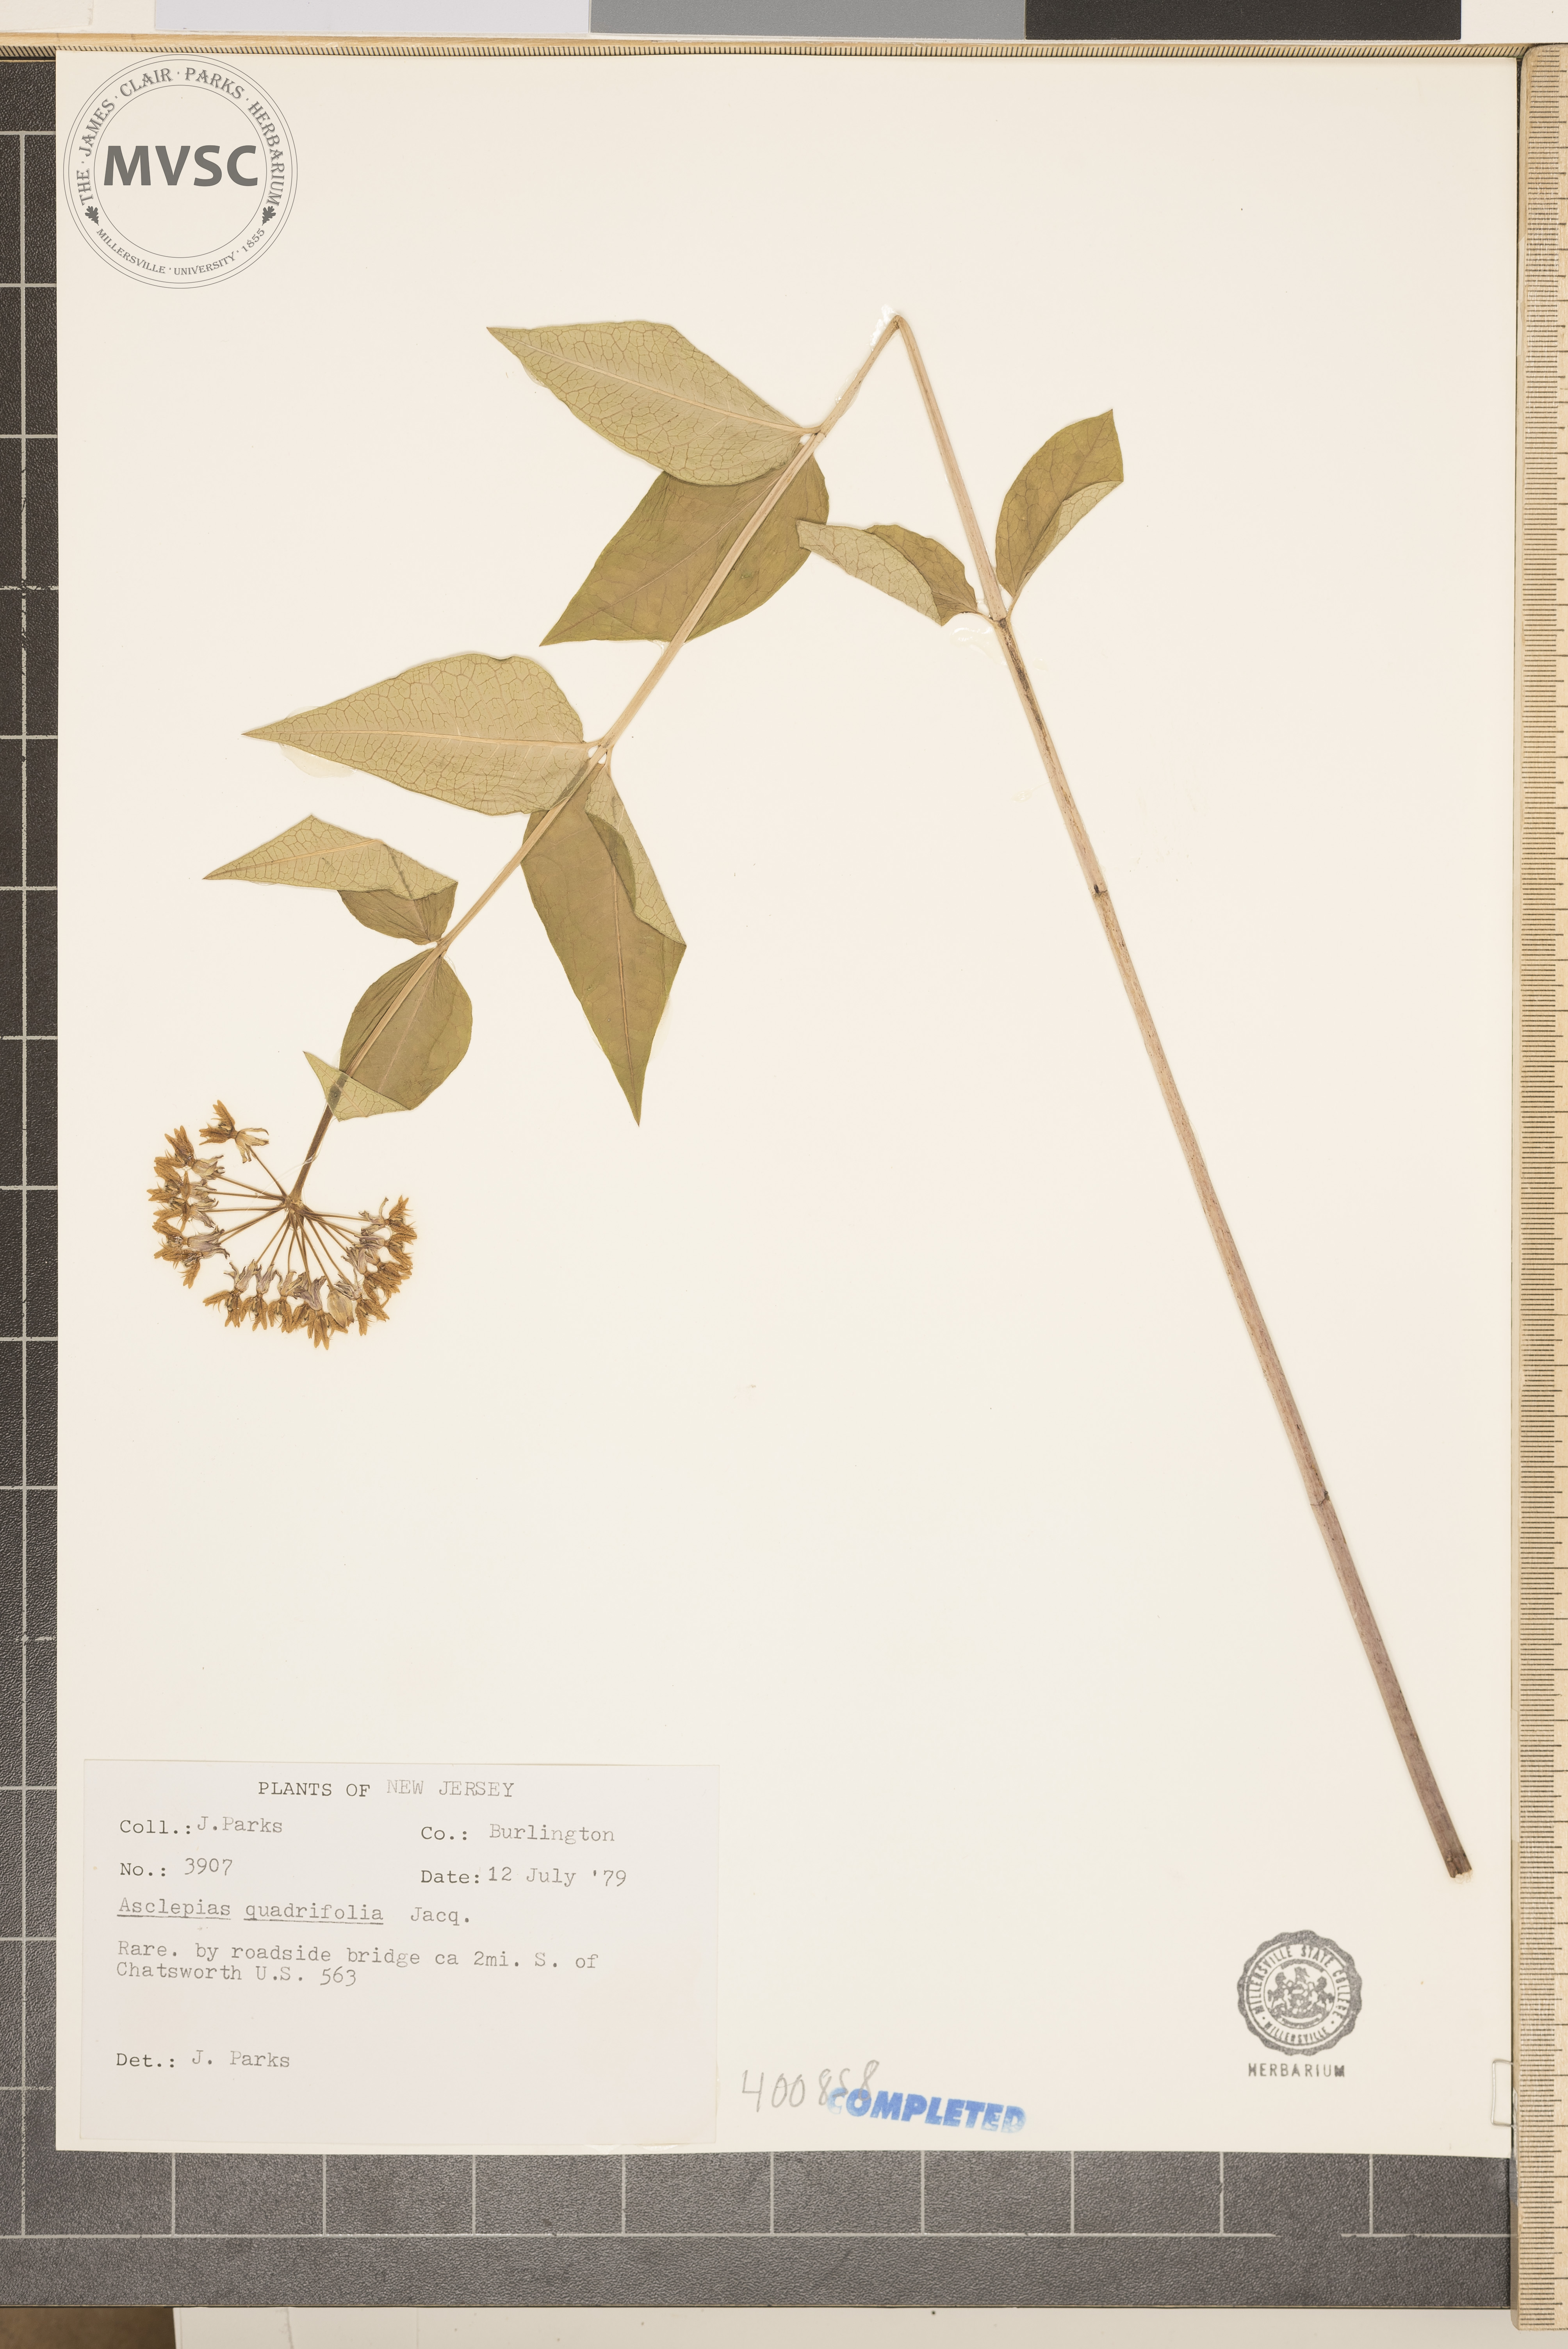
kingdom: Plantae
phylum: Tracheophyta
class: Magnoliopsida
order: Gentianales
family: Apocynaceae
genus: Asclepias
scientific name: Asclepias quadrifolia
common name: milkweed
